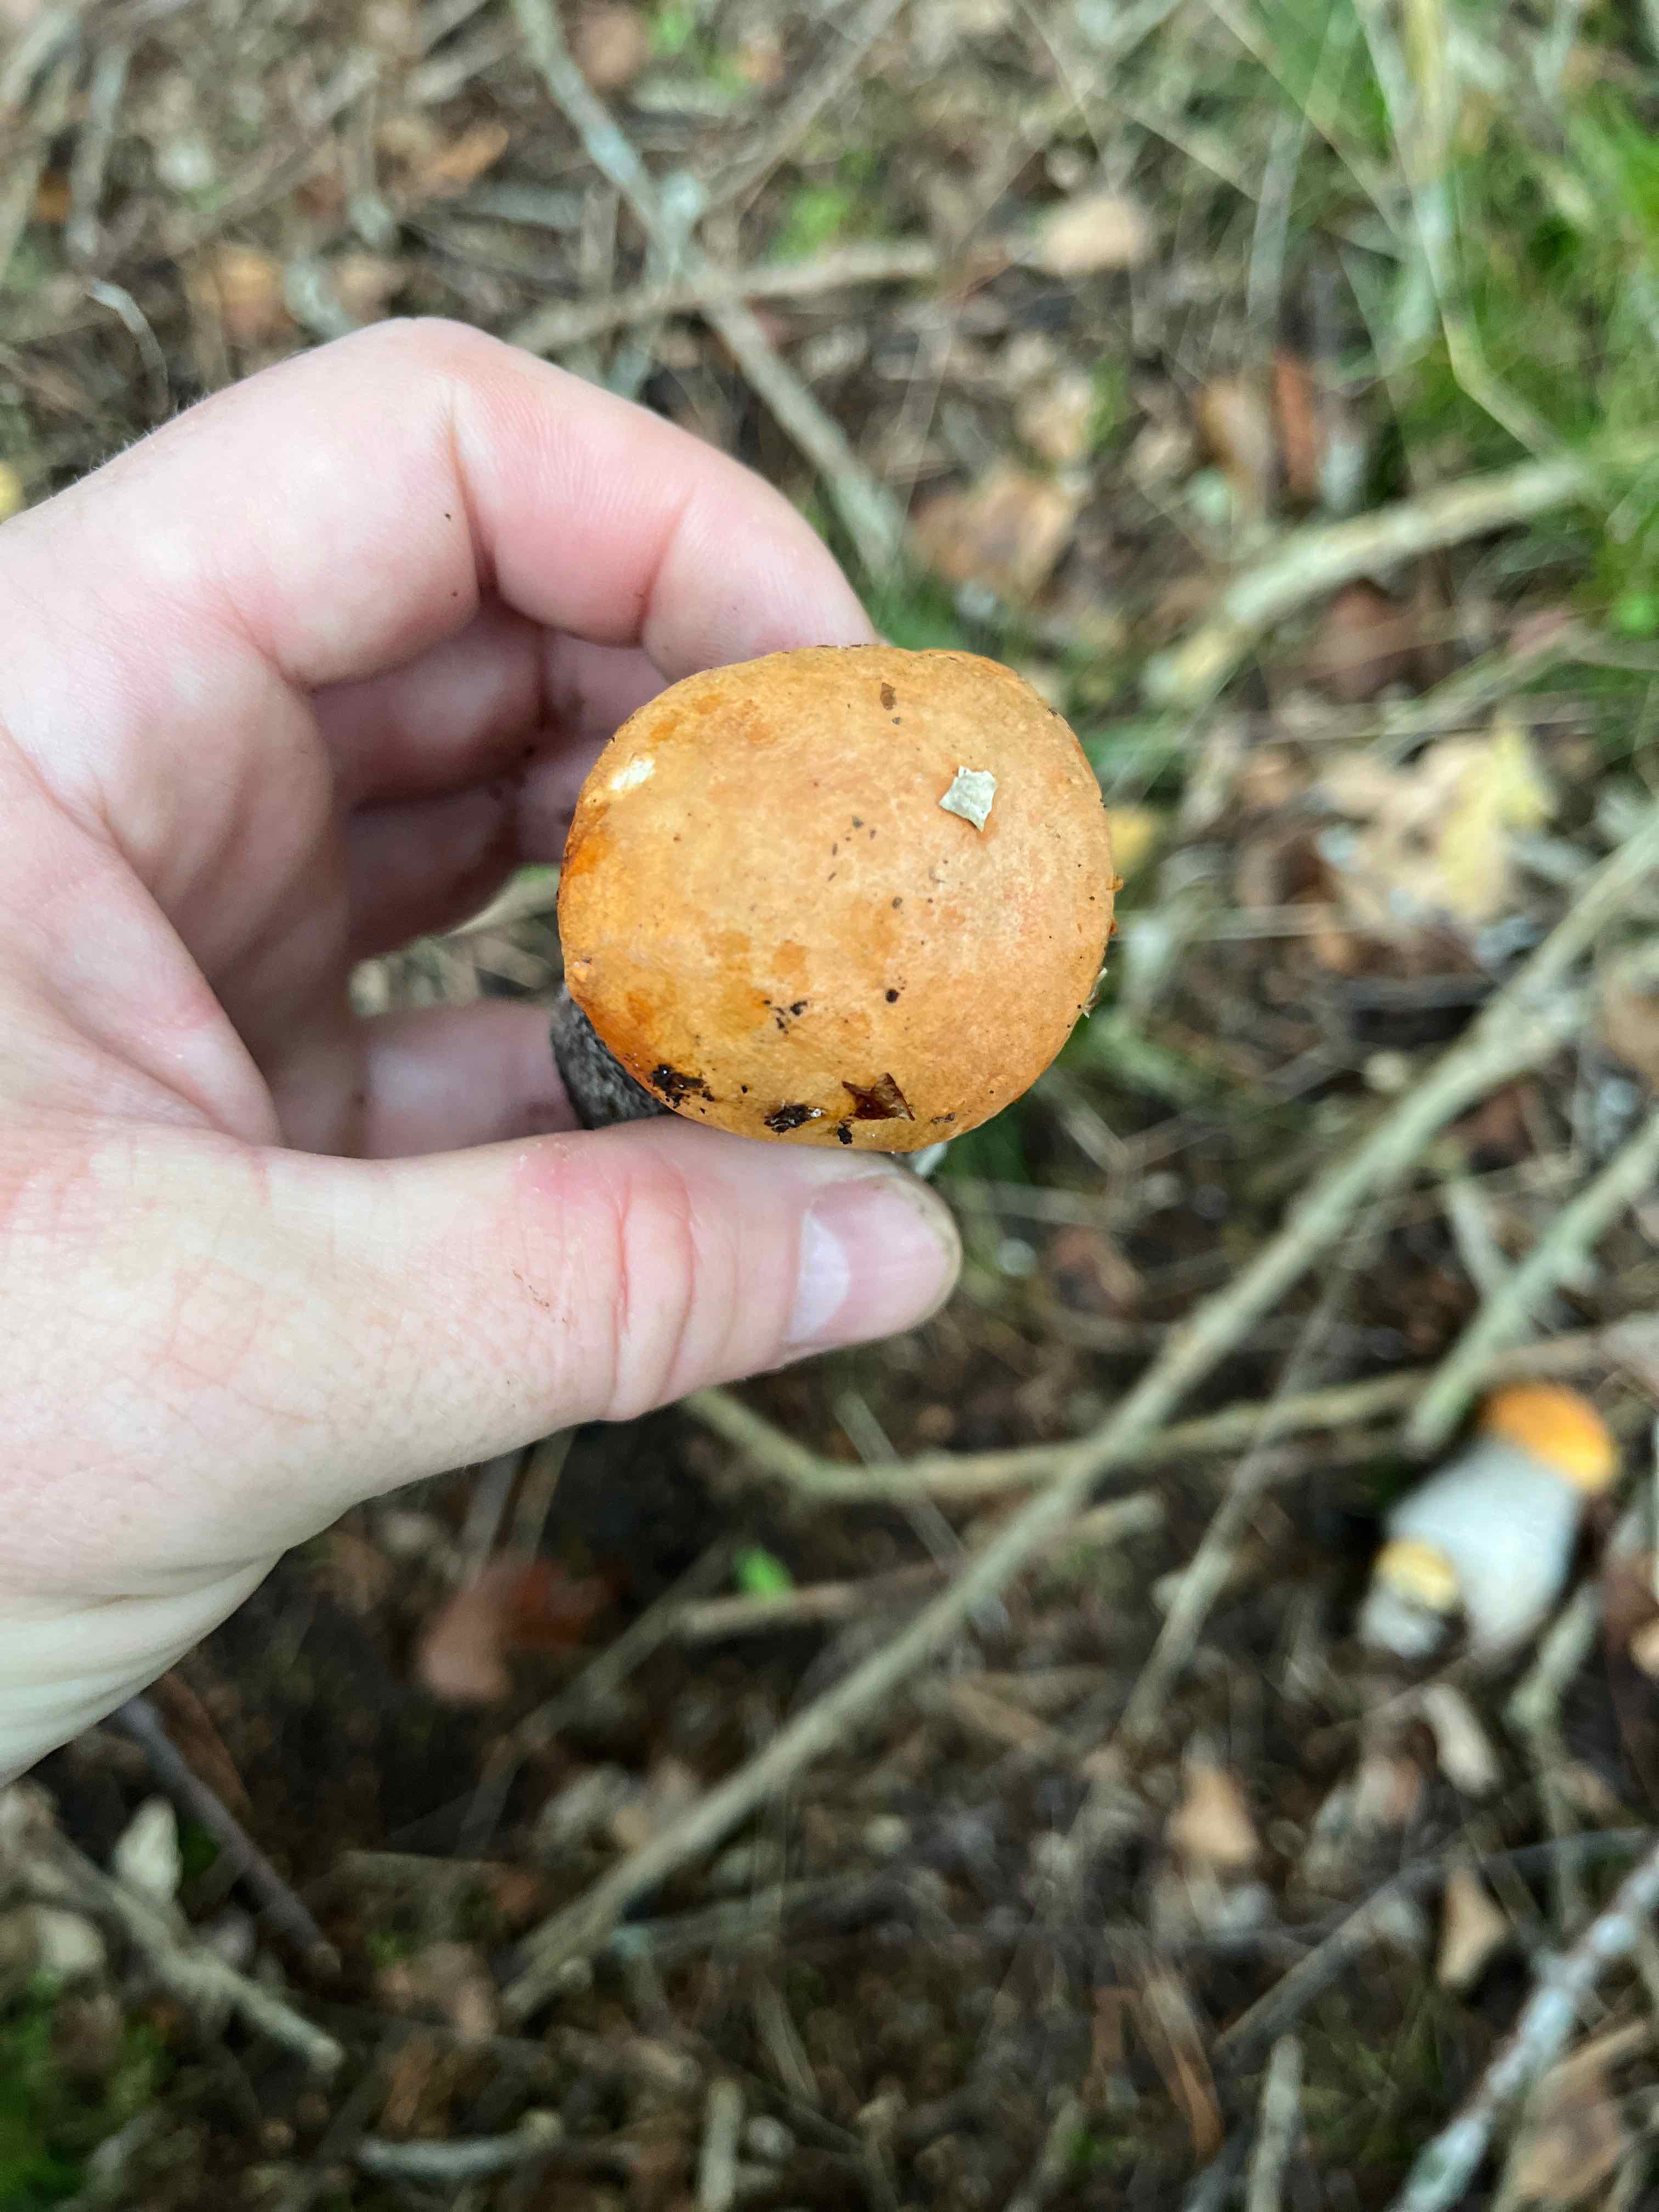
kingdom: Fungi
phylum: Basidiomycota
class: Agaricomycetes
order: Boletales
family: Boletaceae
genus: Leccinum
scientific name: Leccinum versipelle
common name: orange skælrørhat
